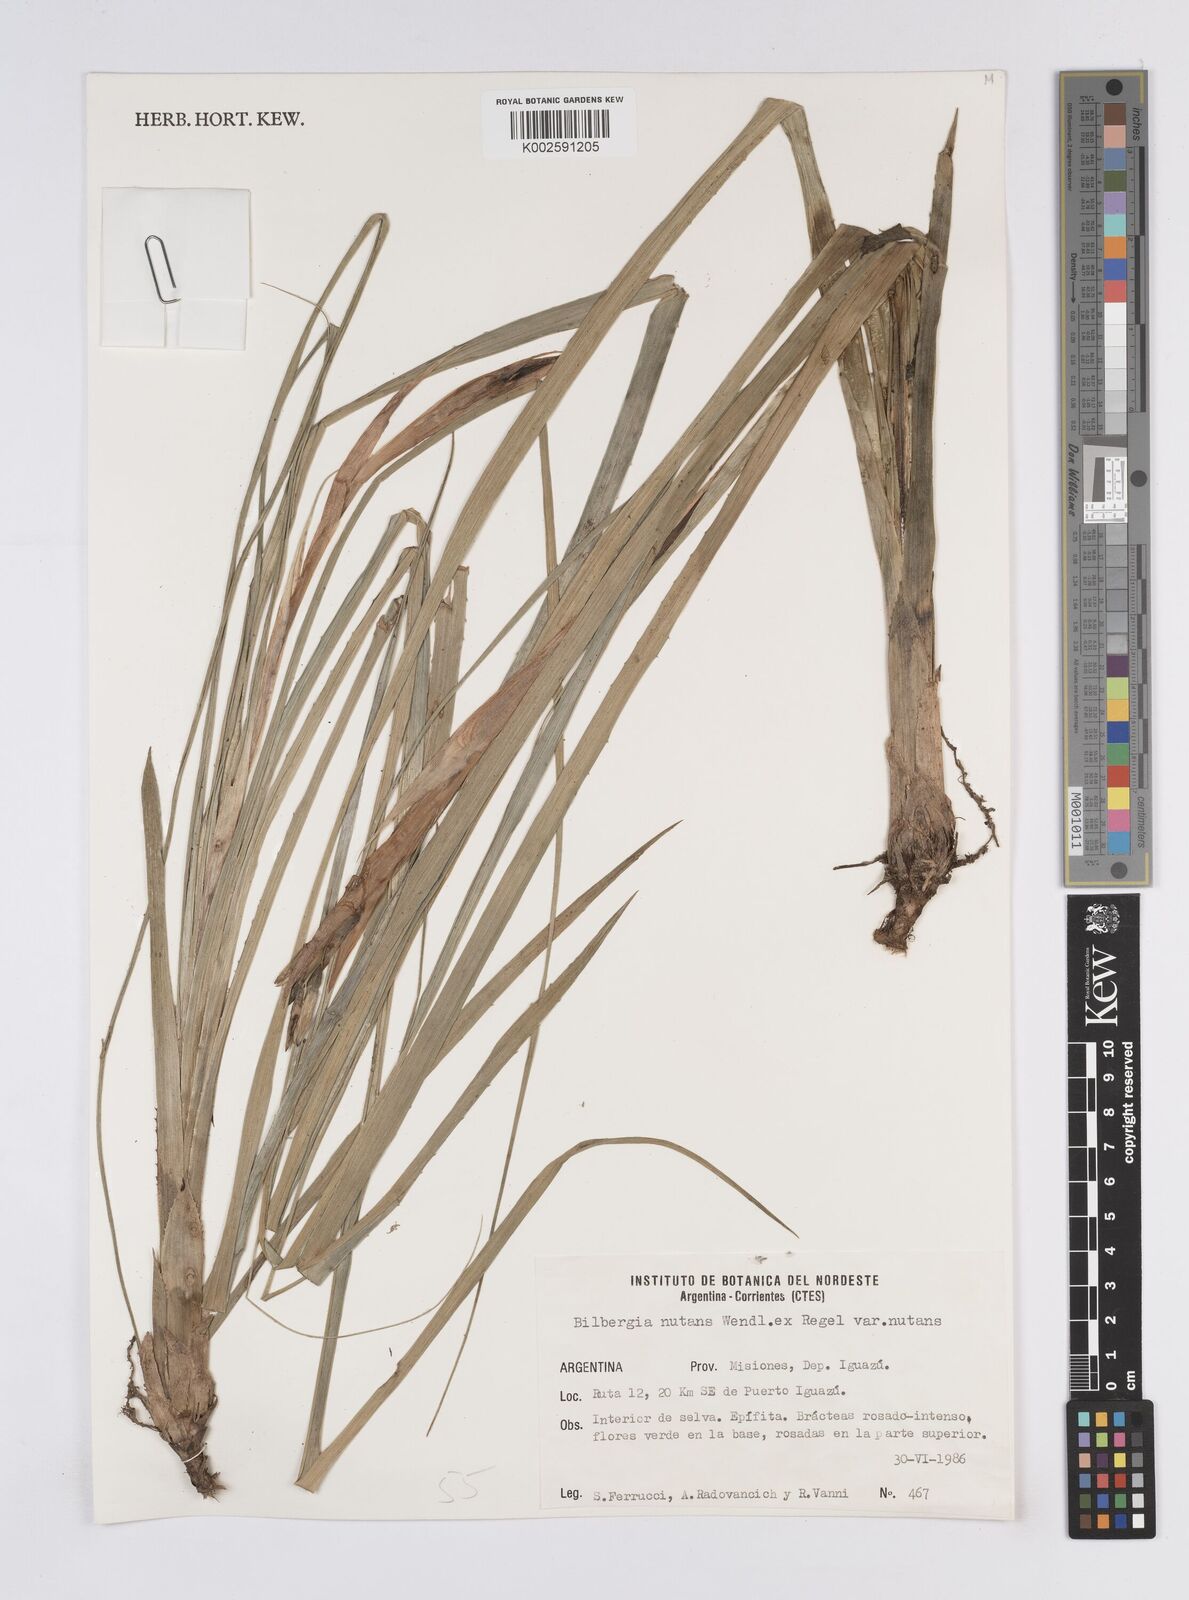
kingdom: Plantae
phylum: Tracheophyta
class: Liliopsida
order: Poales
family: Bromeliaceae
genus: Billbergia
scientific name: Billbergia nutans
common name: Friendship-plant
